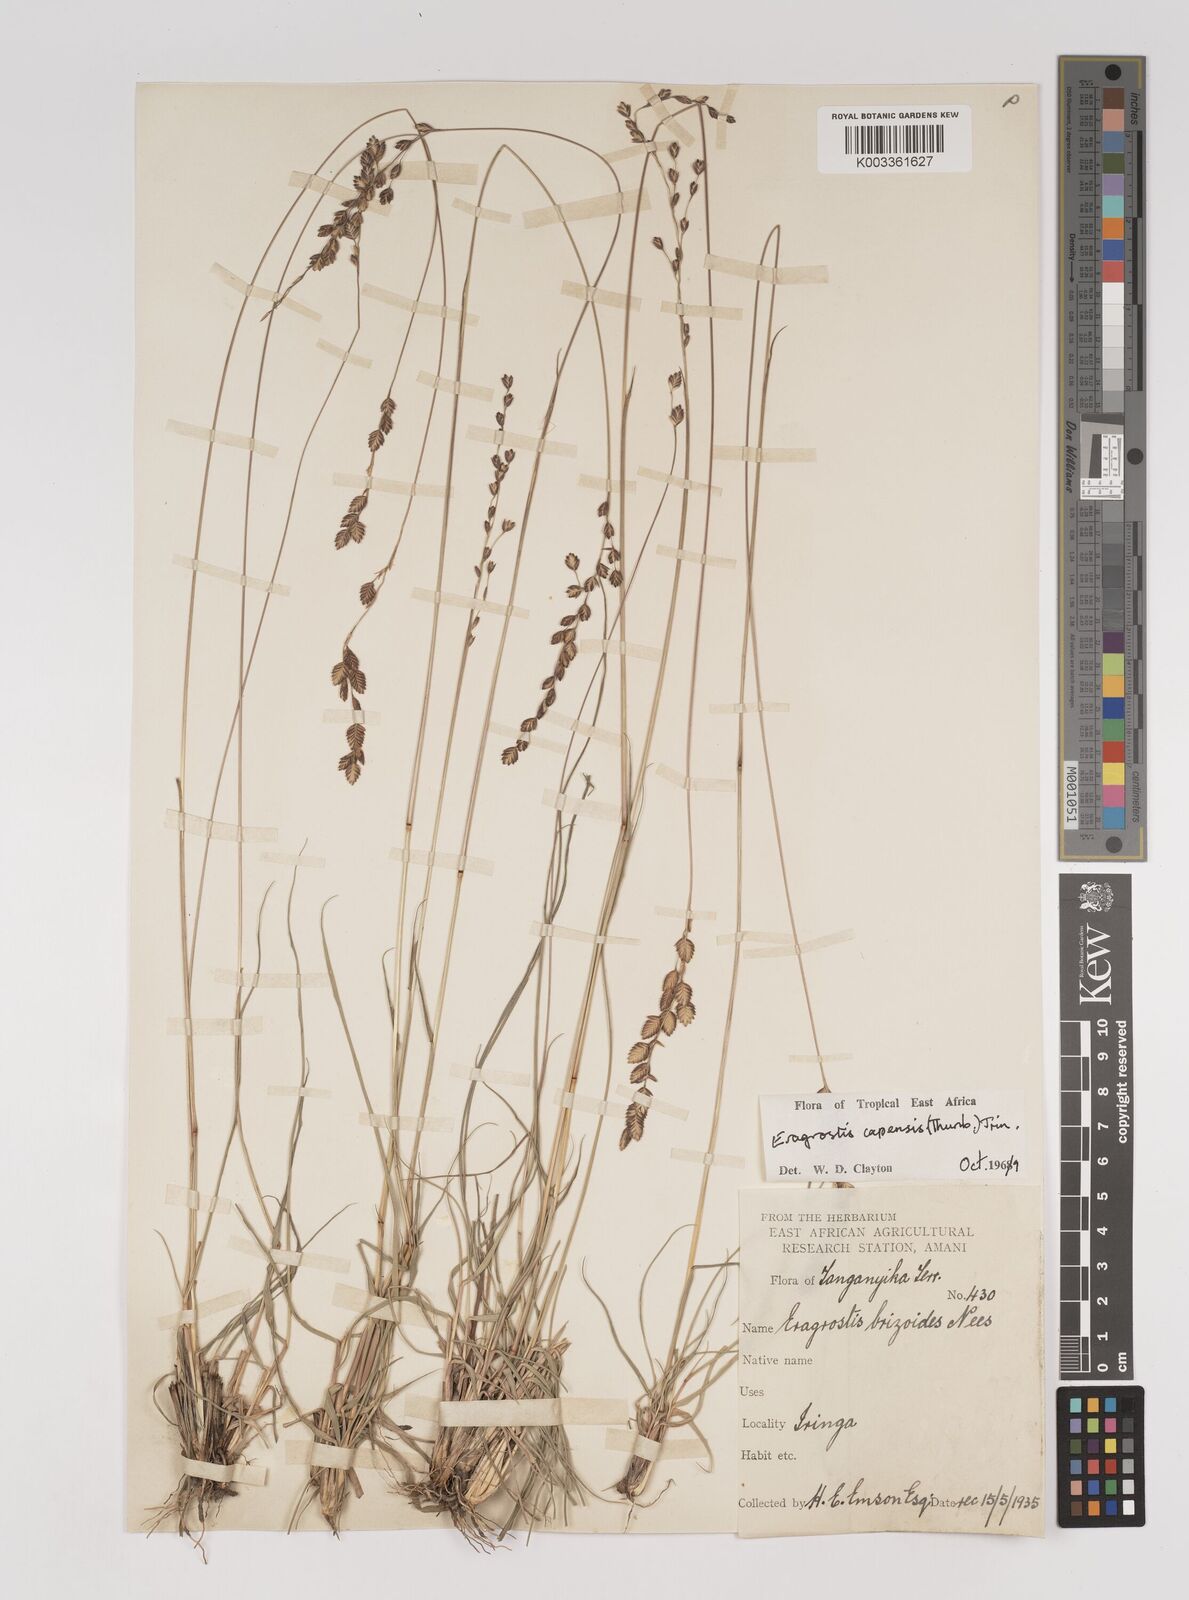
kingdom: Plantae
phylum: Tracheophyta
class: Liliopsida
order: Poales
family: Poaceae
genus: Eragrostis
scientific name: Eragrostis capensis
